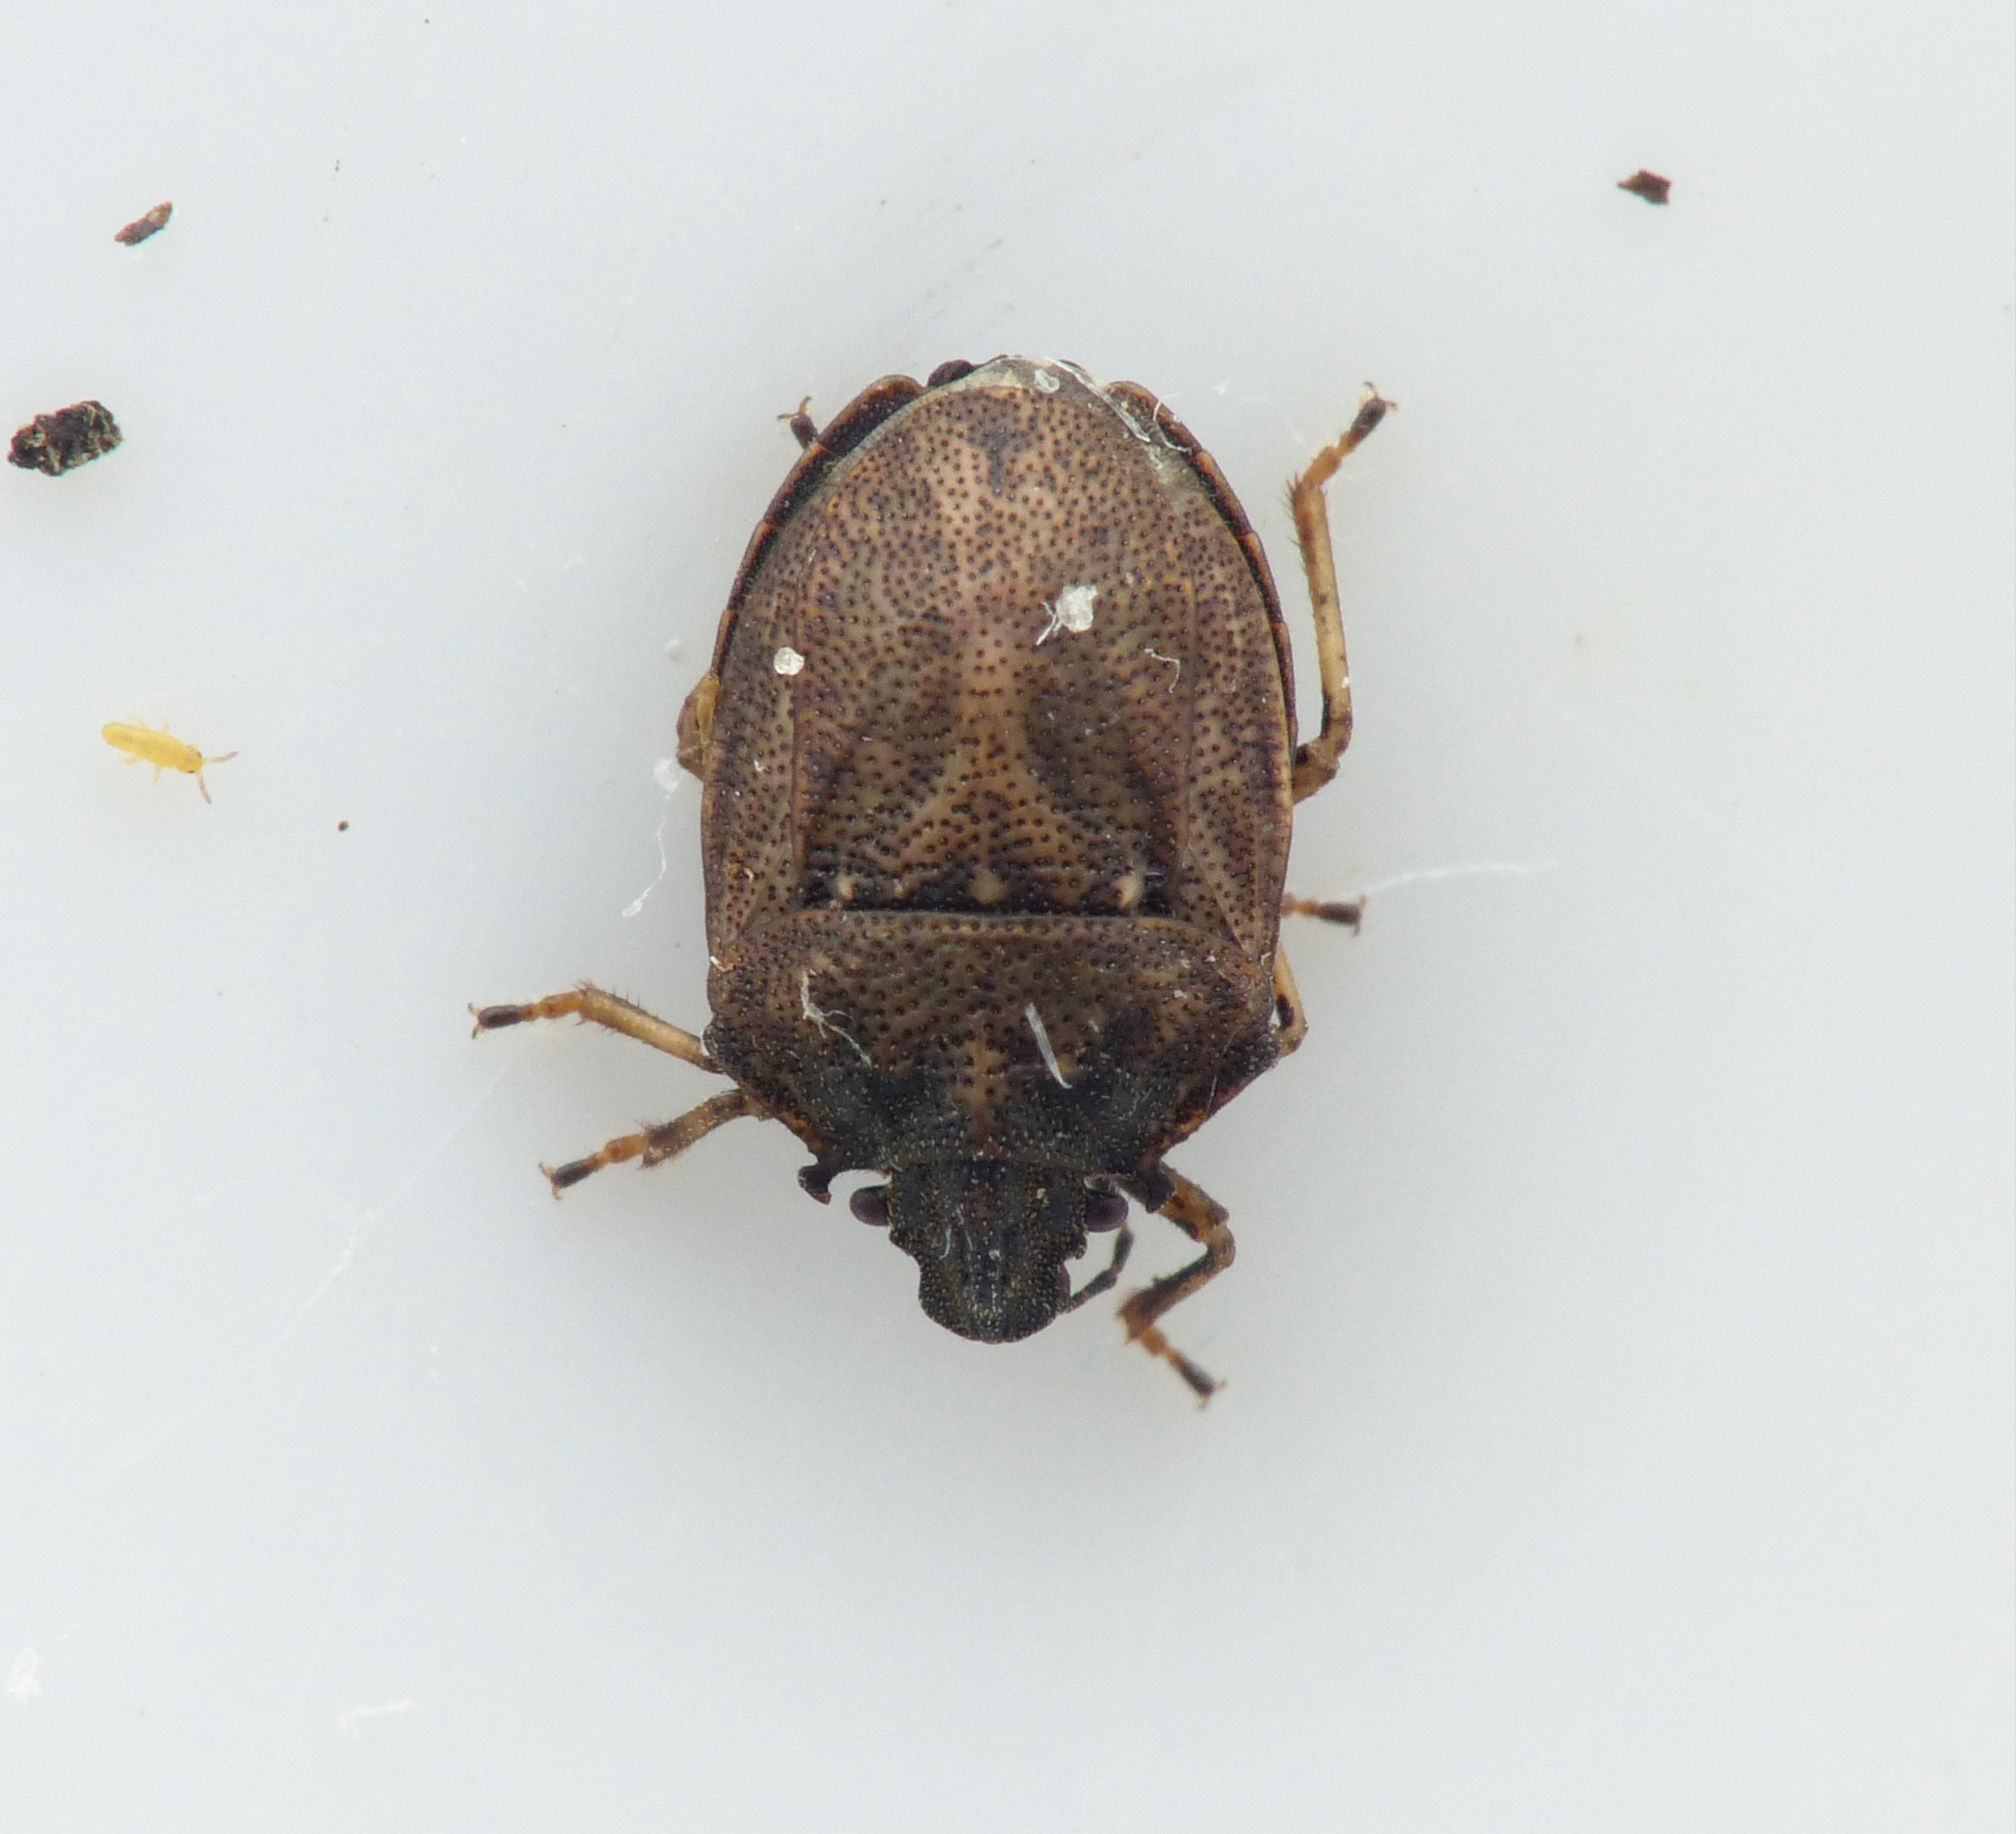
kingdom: Animalia
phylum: Arthropoda
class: Insecta
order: Hemiptera
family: Pentatomidae
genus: Podops
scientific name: Podops inunctus
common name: Krogtæge
